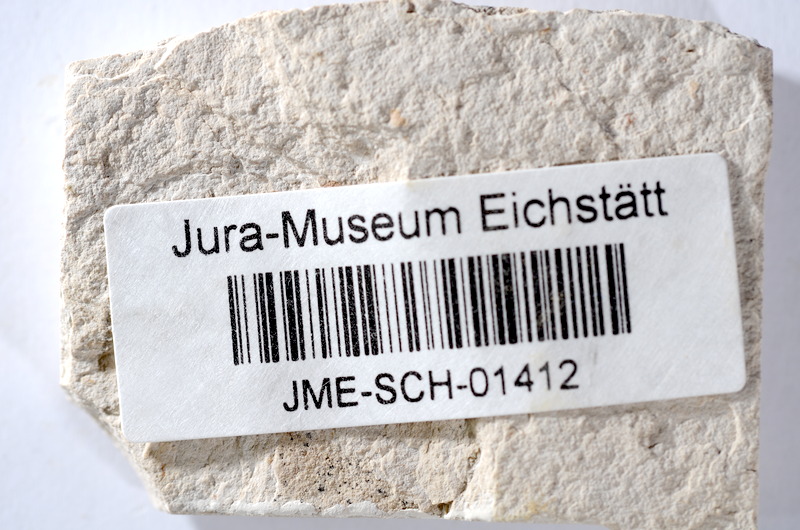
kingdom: Animalia
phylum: Chordata
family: Ascalaboidae
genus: Tharsis
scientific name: Tharsis dubius
